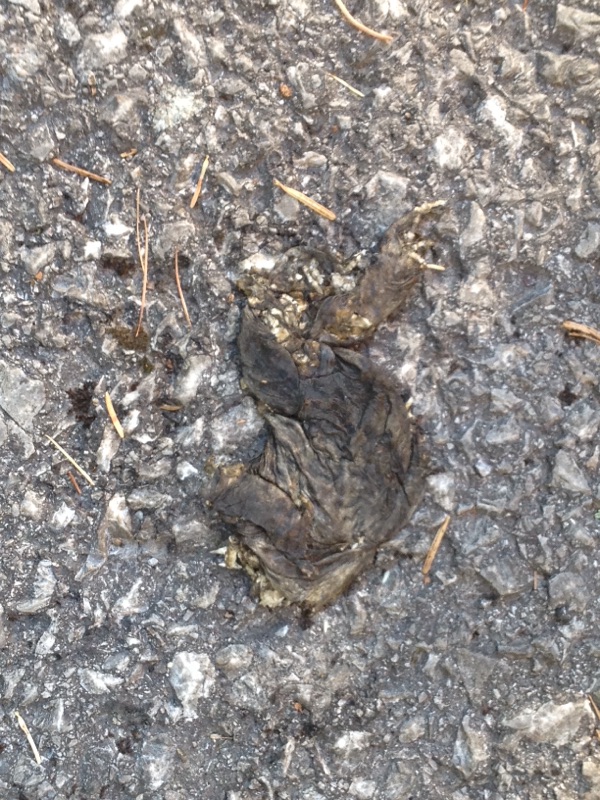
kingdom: Animalia
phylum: Chordata
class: Amphibia
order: Anura
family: Bufonidae
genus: Bufo
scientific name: Bufo bufo
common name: Common toad
